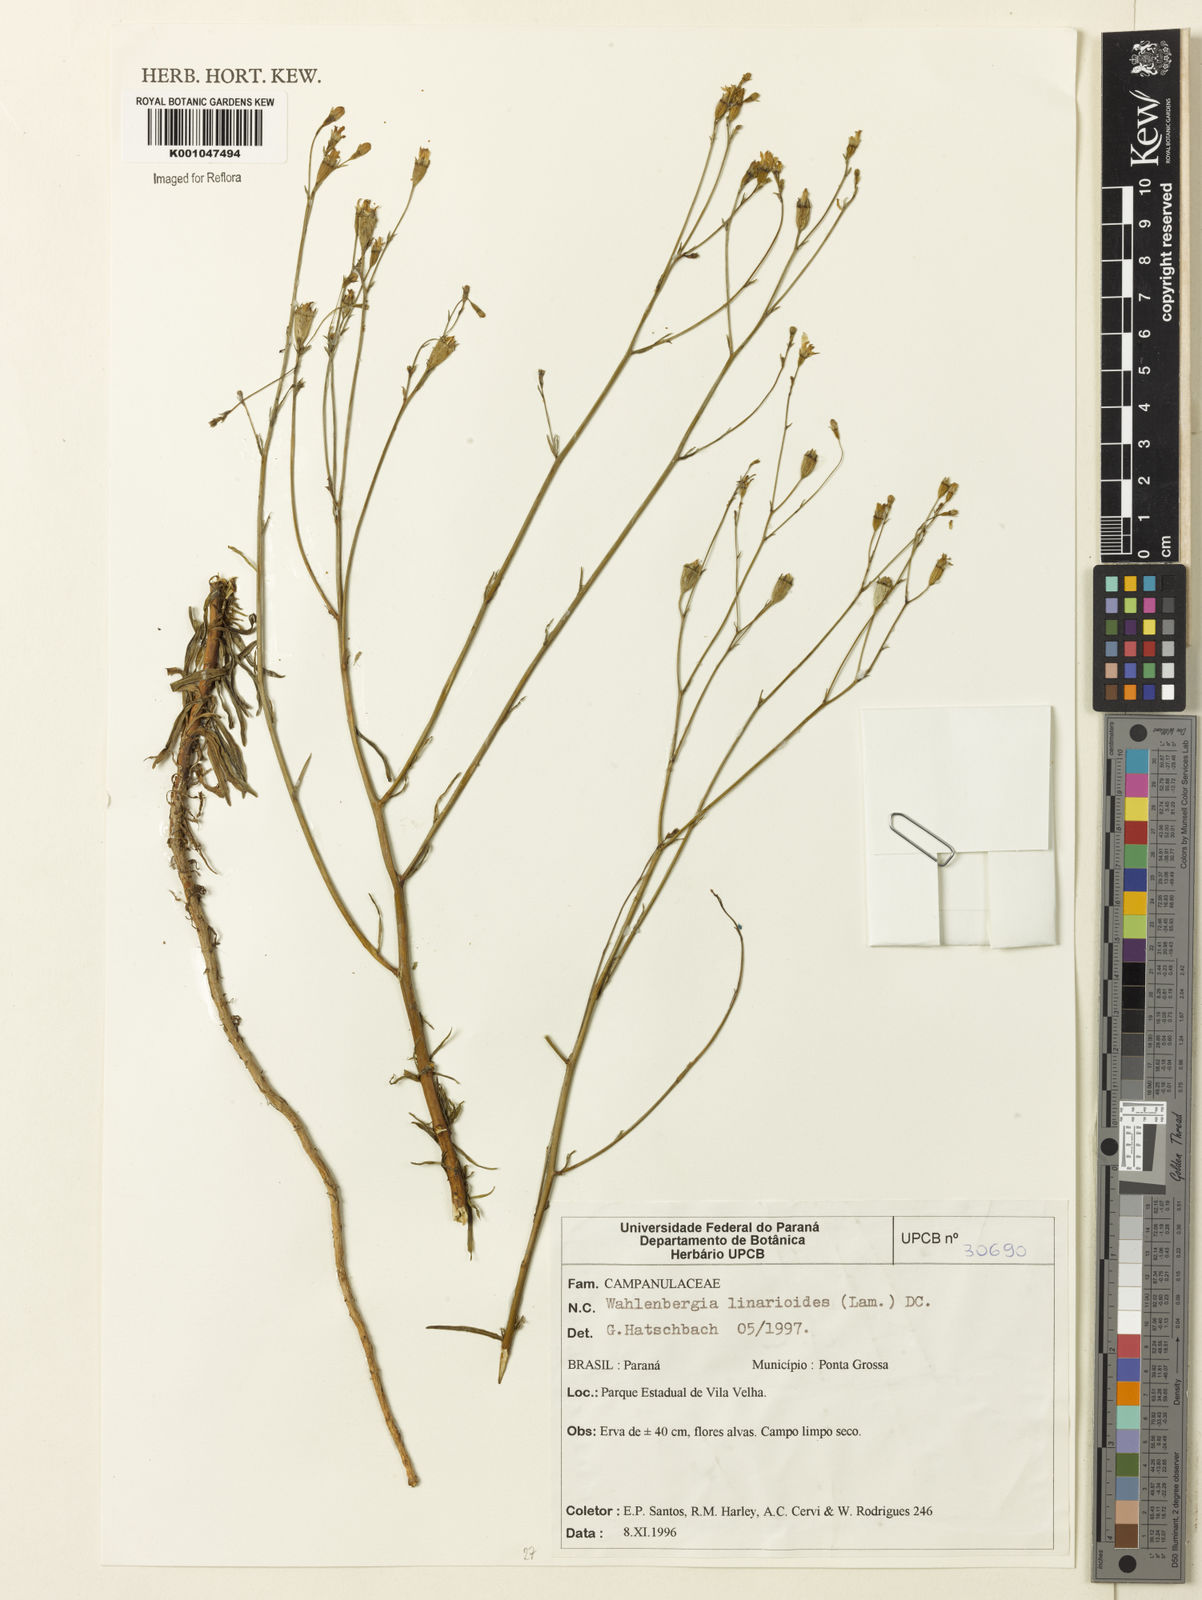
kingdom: Plantae
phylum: Tracheophyta
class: Magnoliopsida
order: Asterales
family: Campanulaceae
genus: Wahlenbergia
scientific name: Wahlenbergia linarioides
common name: Tuffybells
